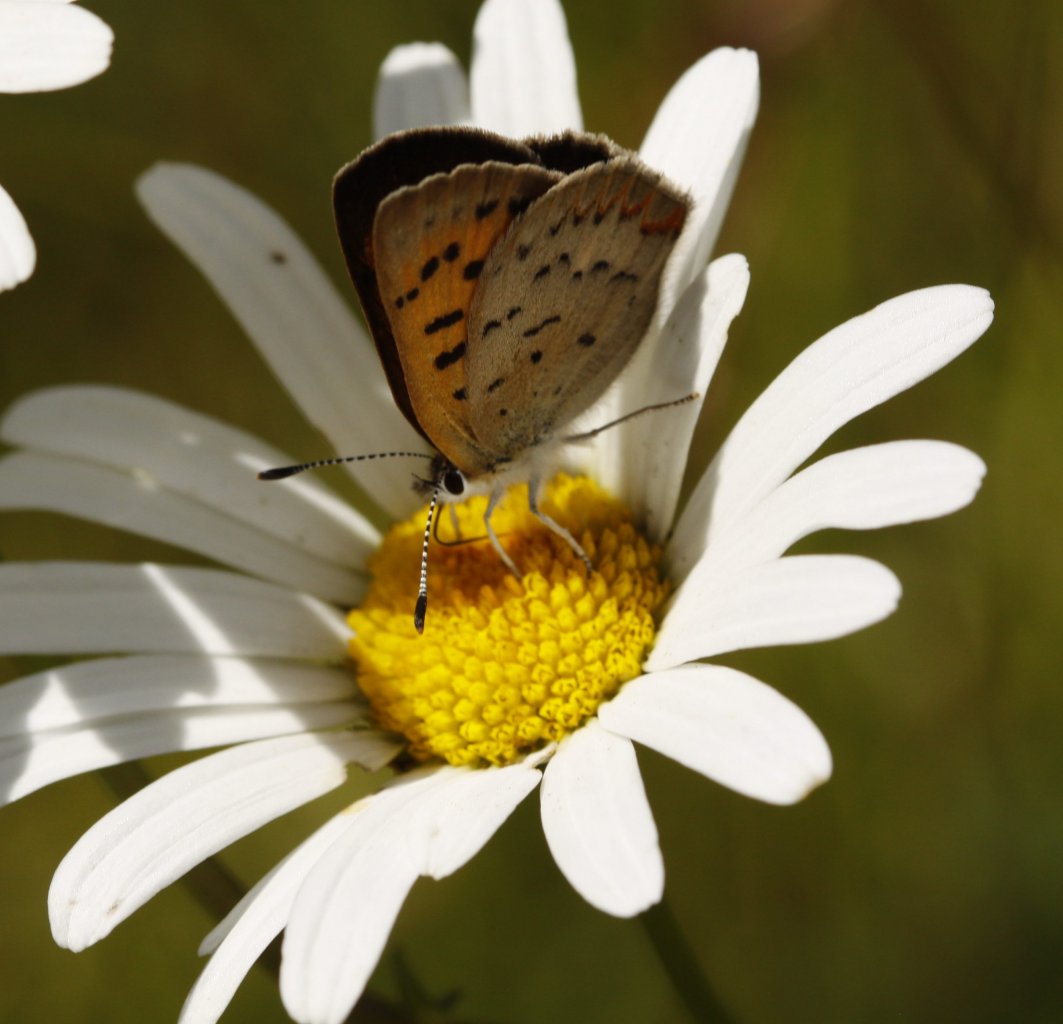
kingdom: Animalia
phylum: Arthropoda
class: Insecta
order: Lepidoptera
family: Lycaenidae
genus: Epidemia
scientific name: Epidemia dorcas
